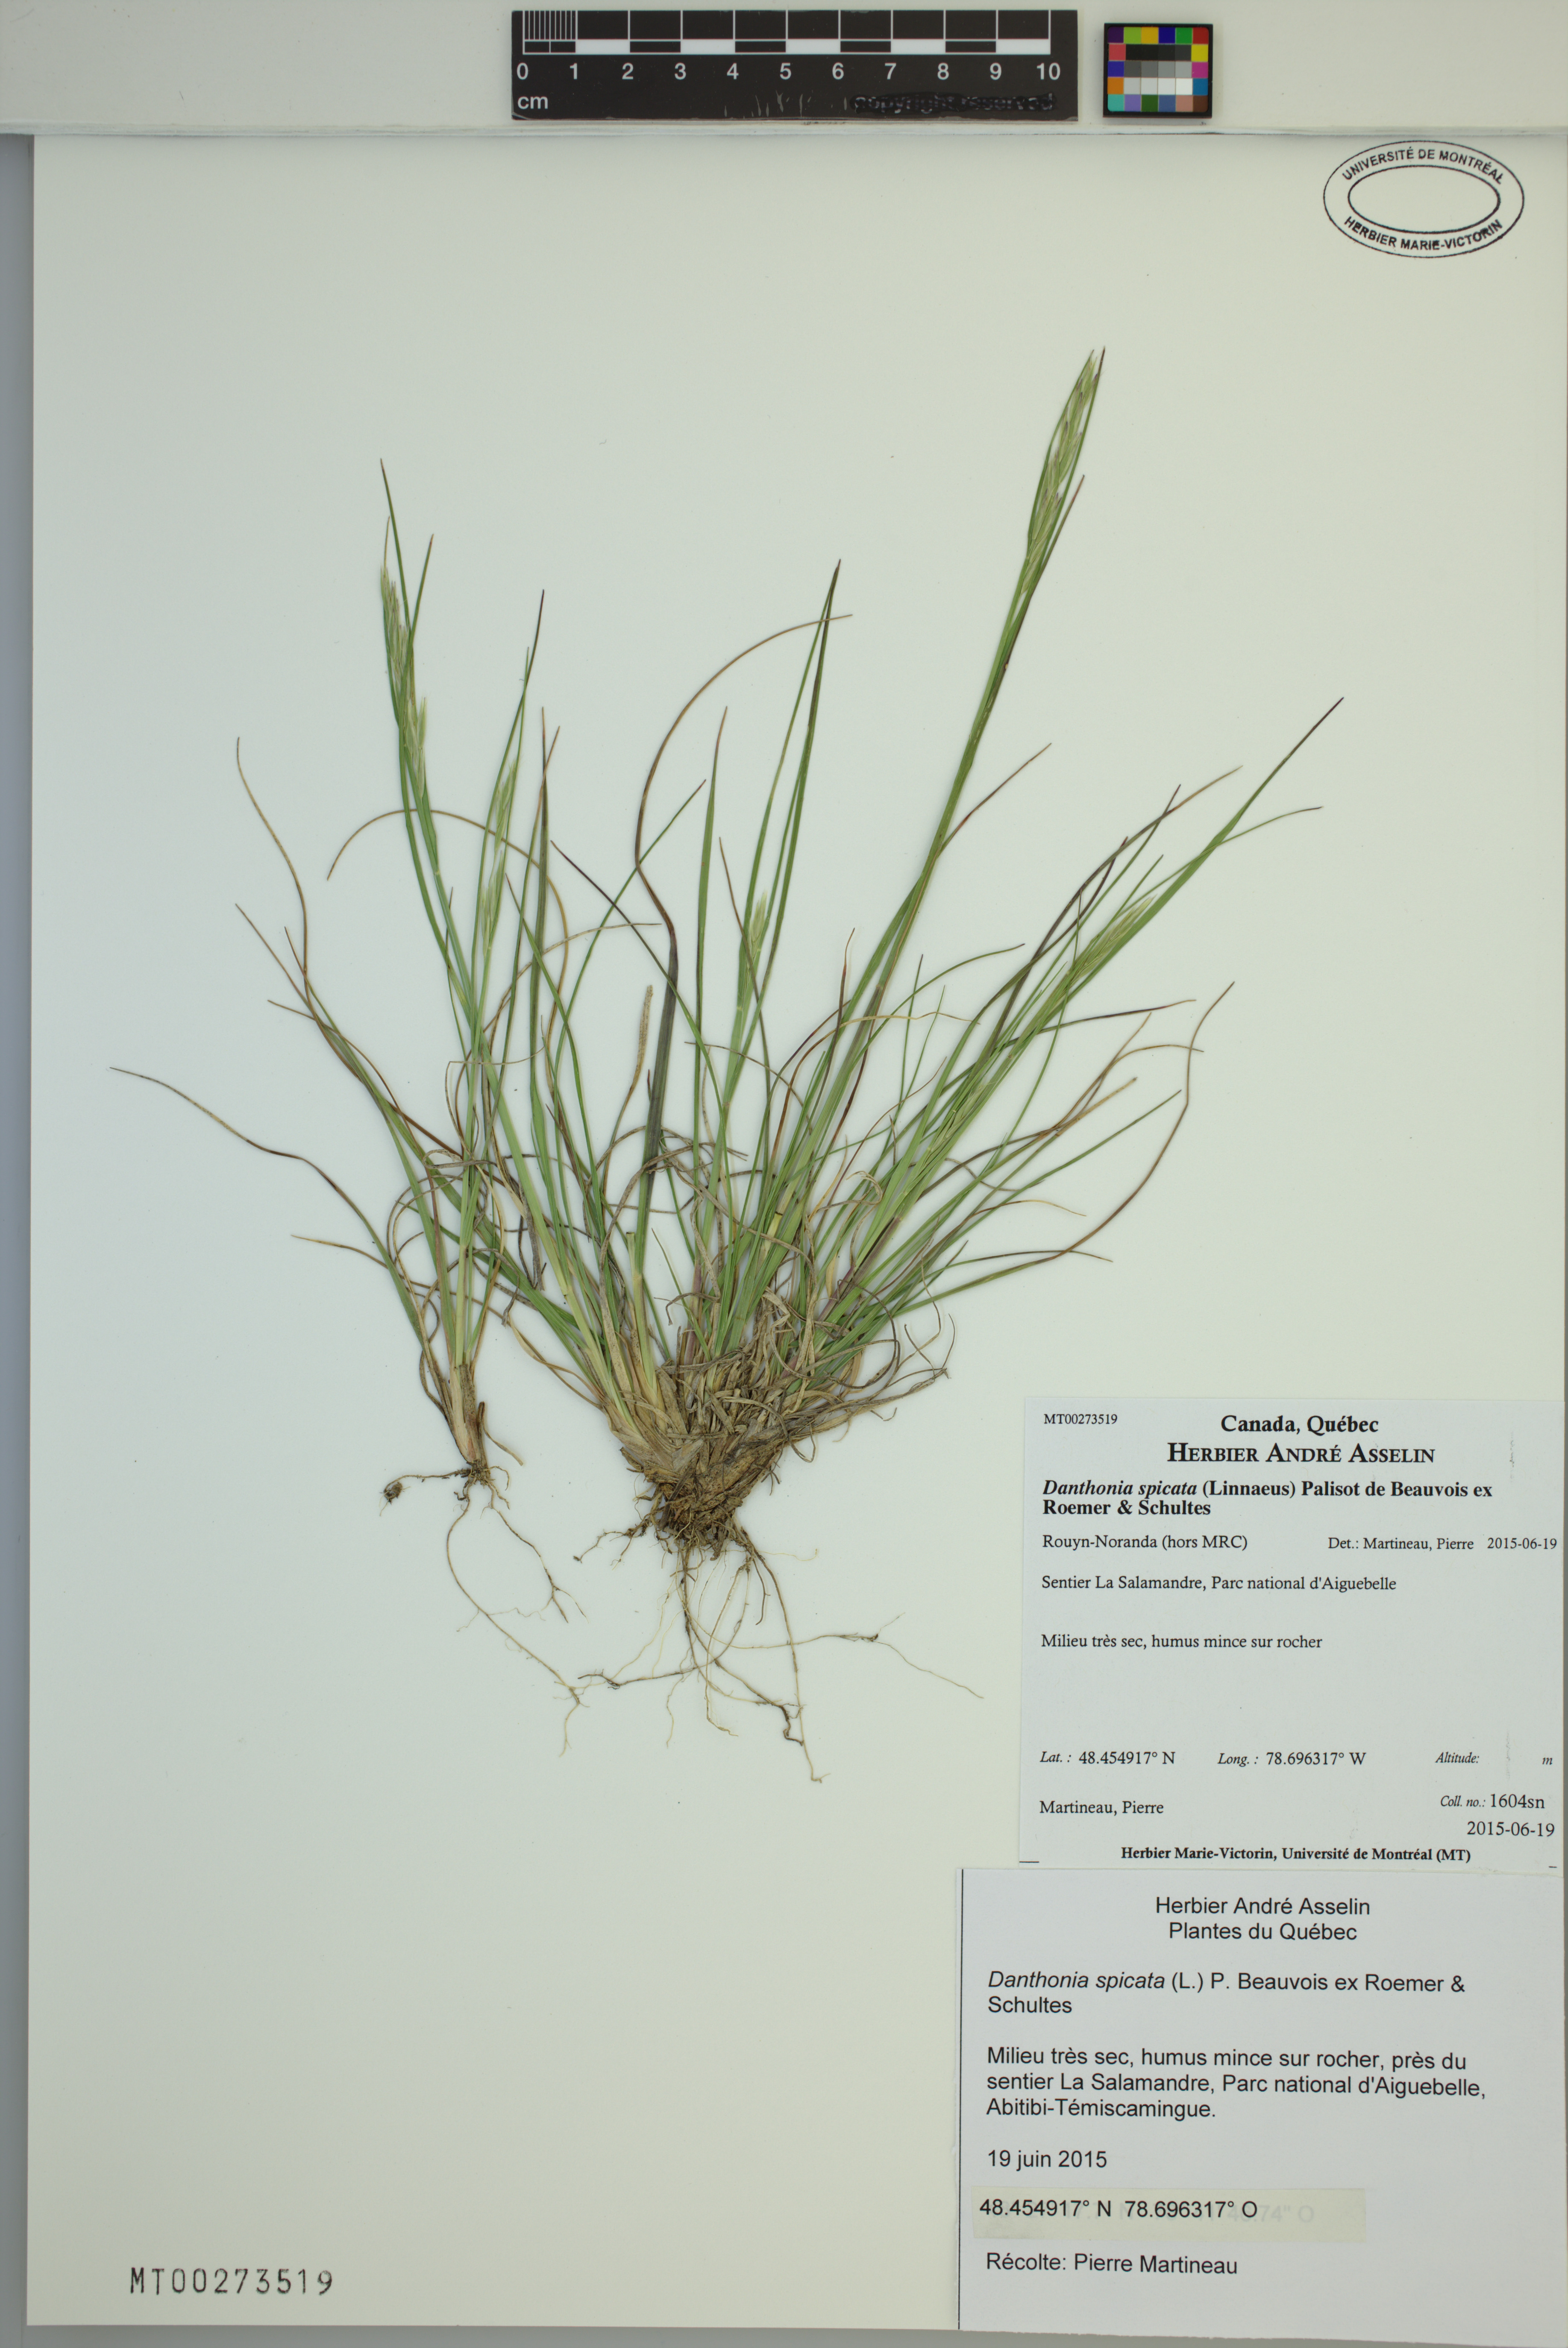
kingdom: Plantae
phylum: Tracheophyta
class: Liliopsida
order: Poales
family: Poaceae
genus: Danthonia
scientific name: Danthonia spicata
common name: Common wild oatgrass
